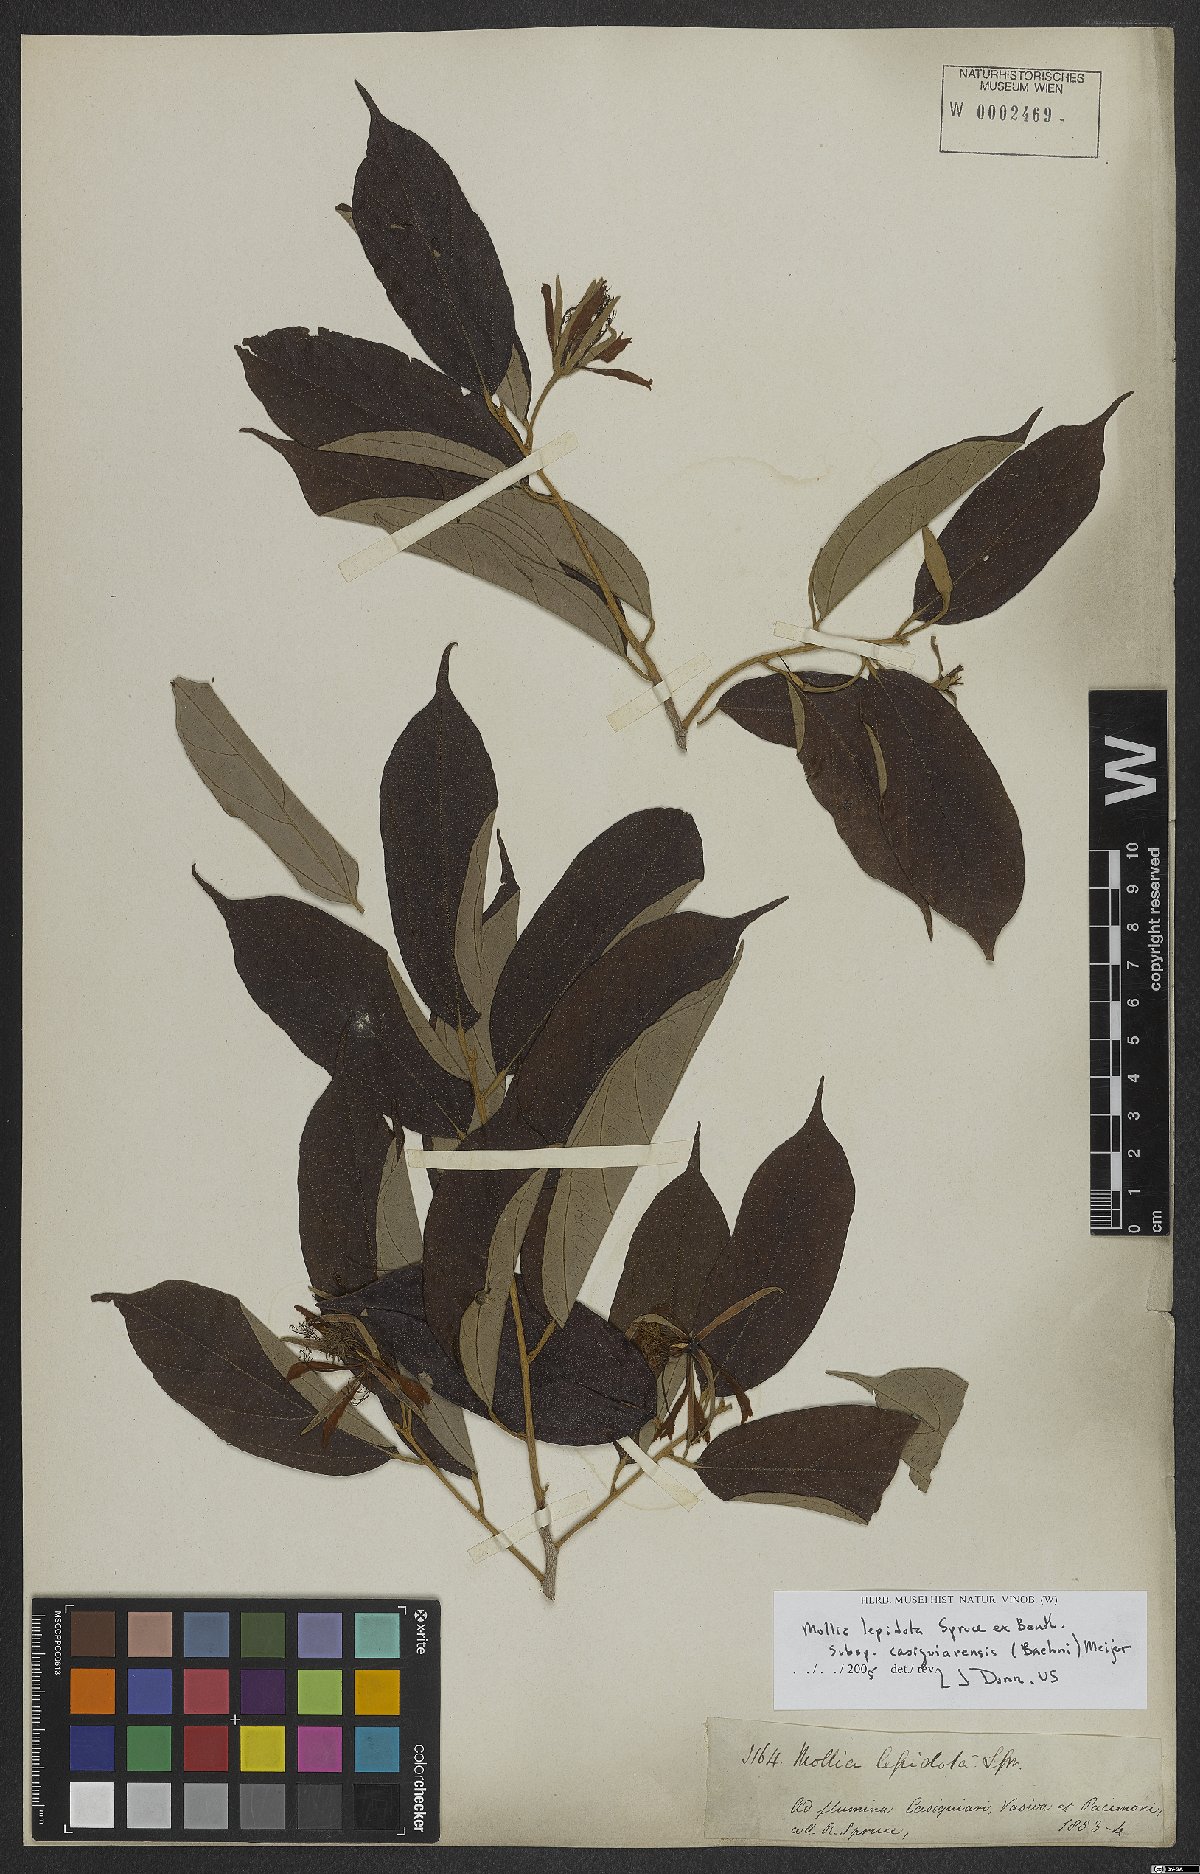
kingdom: Plantae
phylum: Tracheophyta
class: Magnoliopsida
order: Malvales
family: Malvaceae
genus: Mollia
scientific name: Mollia speciosa
